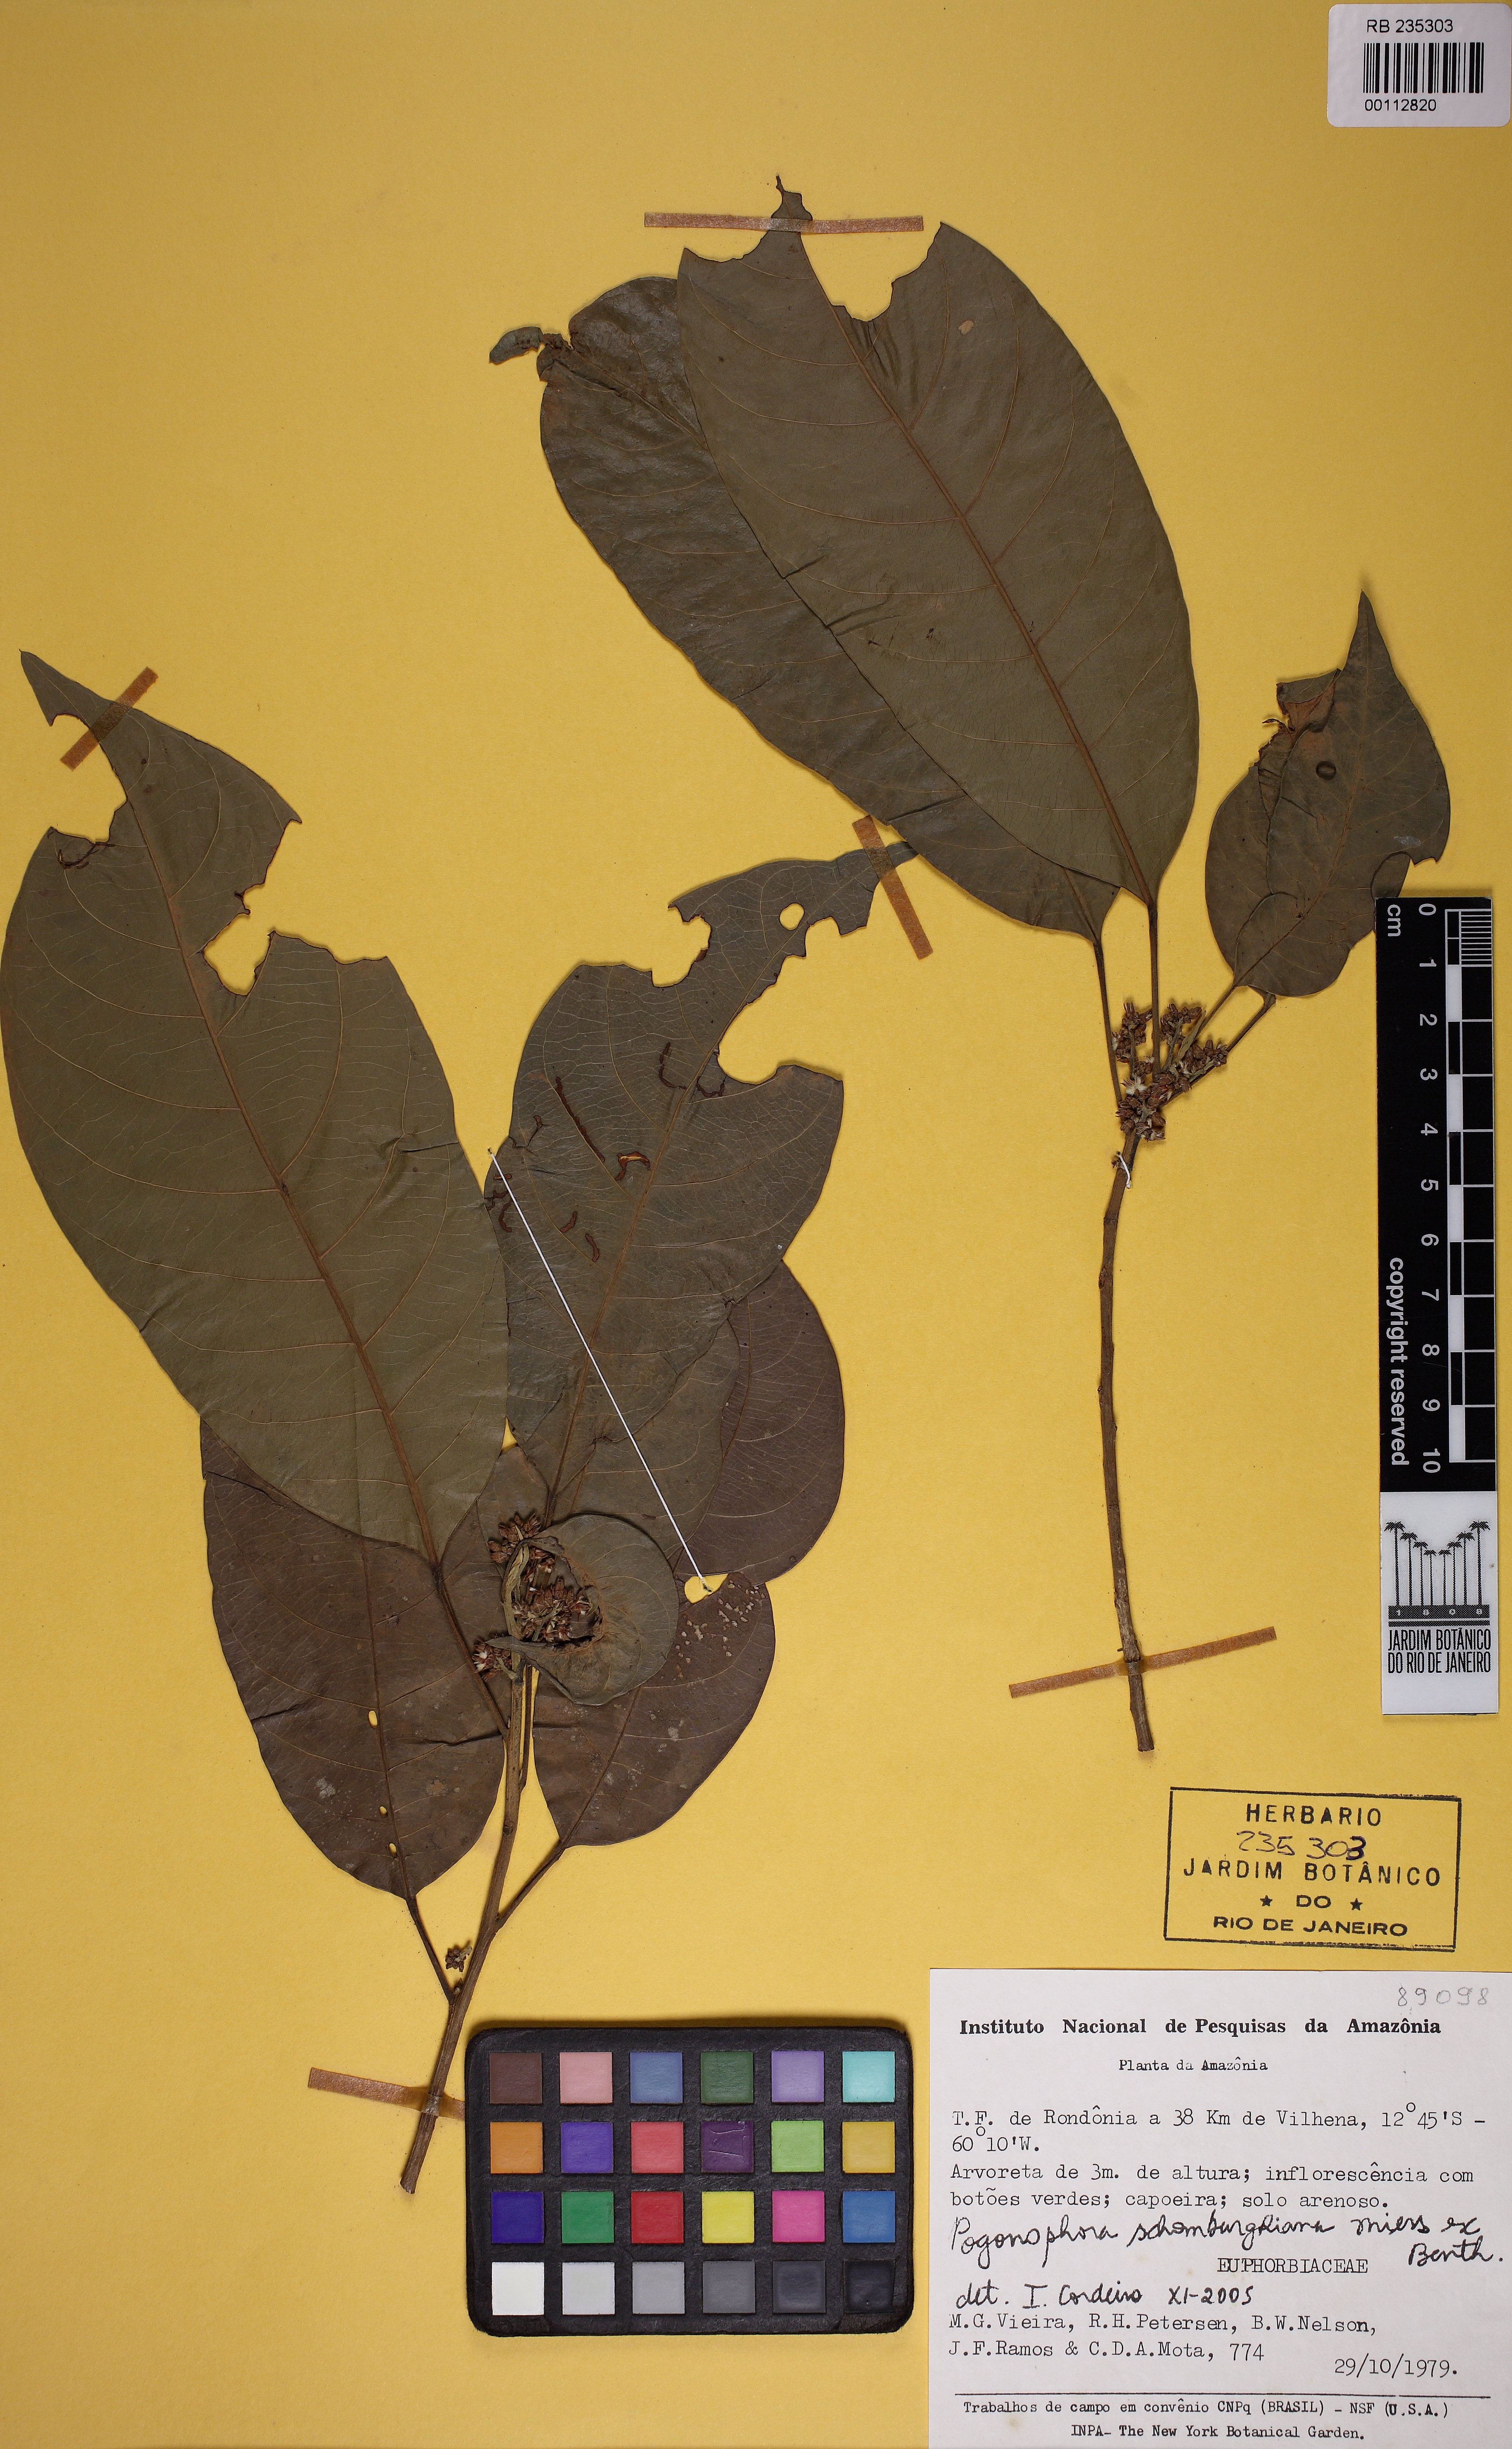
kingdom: Plantae
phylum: Tracheophyta
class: Magnoliopsida
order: Malpighiales
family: Peraceae
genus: Pogonophora
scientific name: Pogonophora schomburgkiana
